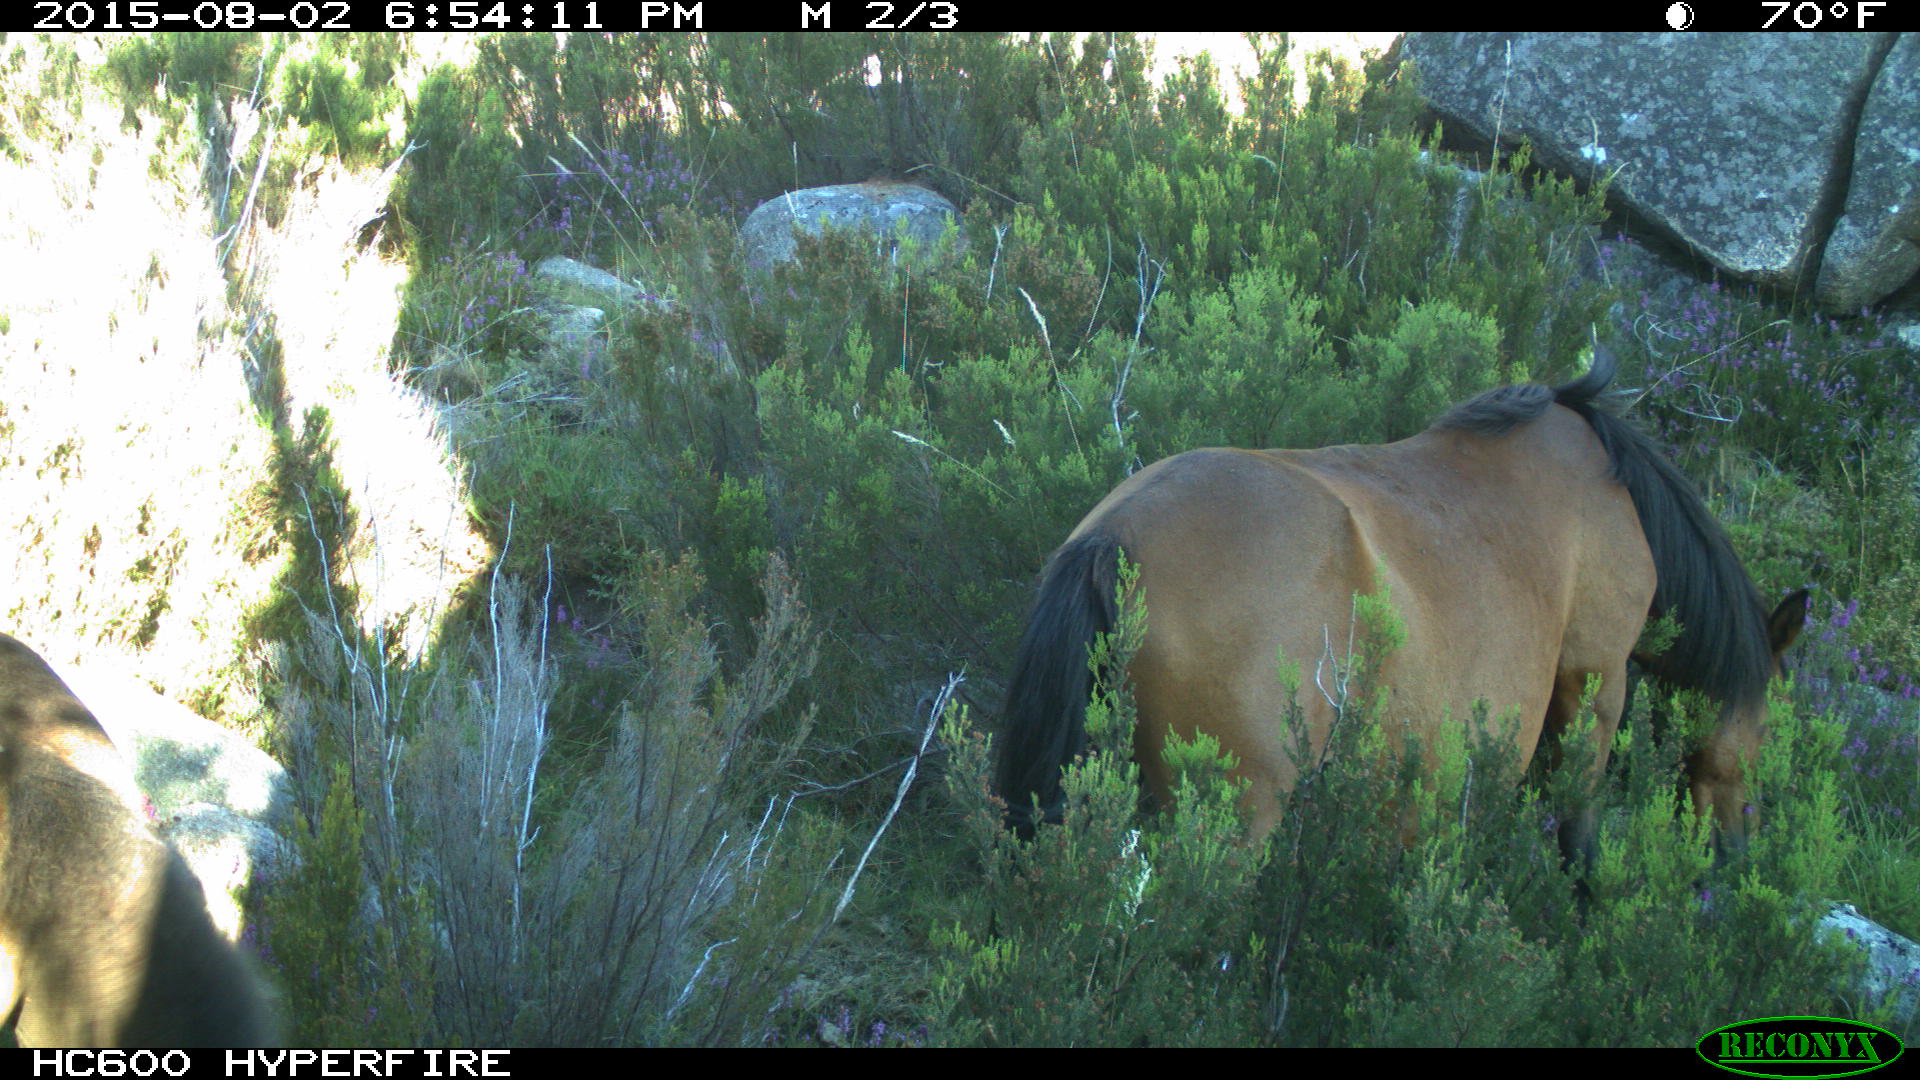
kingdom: Animalia
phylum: Chordata
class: Mammalia
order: Perissodactyla
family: Equidae
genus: Equus
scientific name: Equus caballus
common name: Horse
